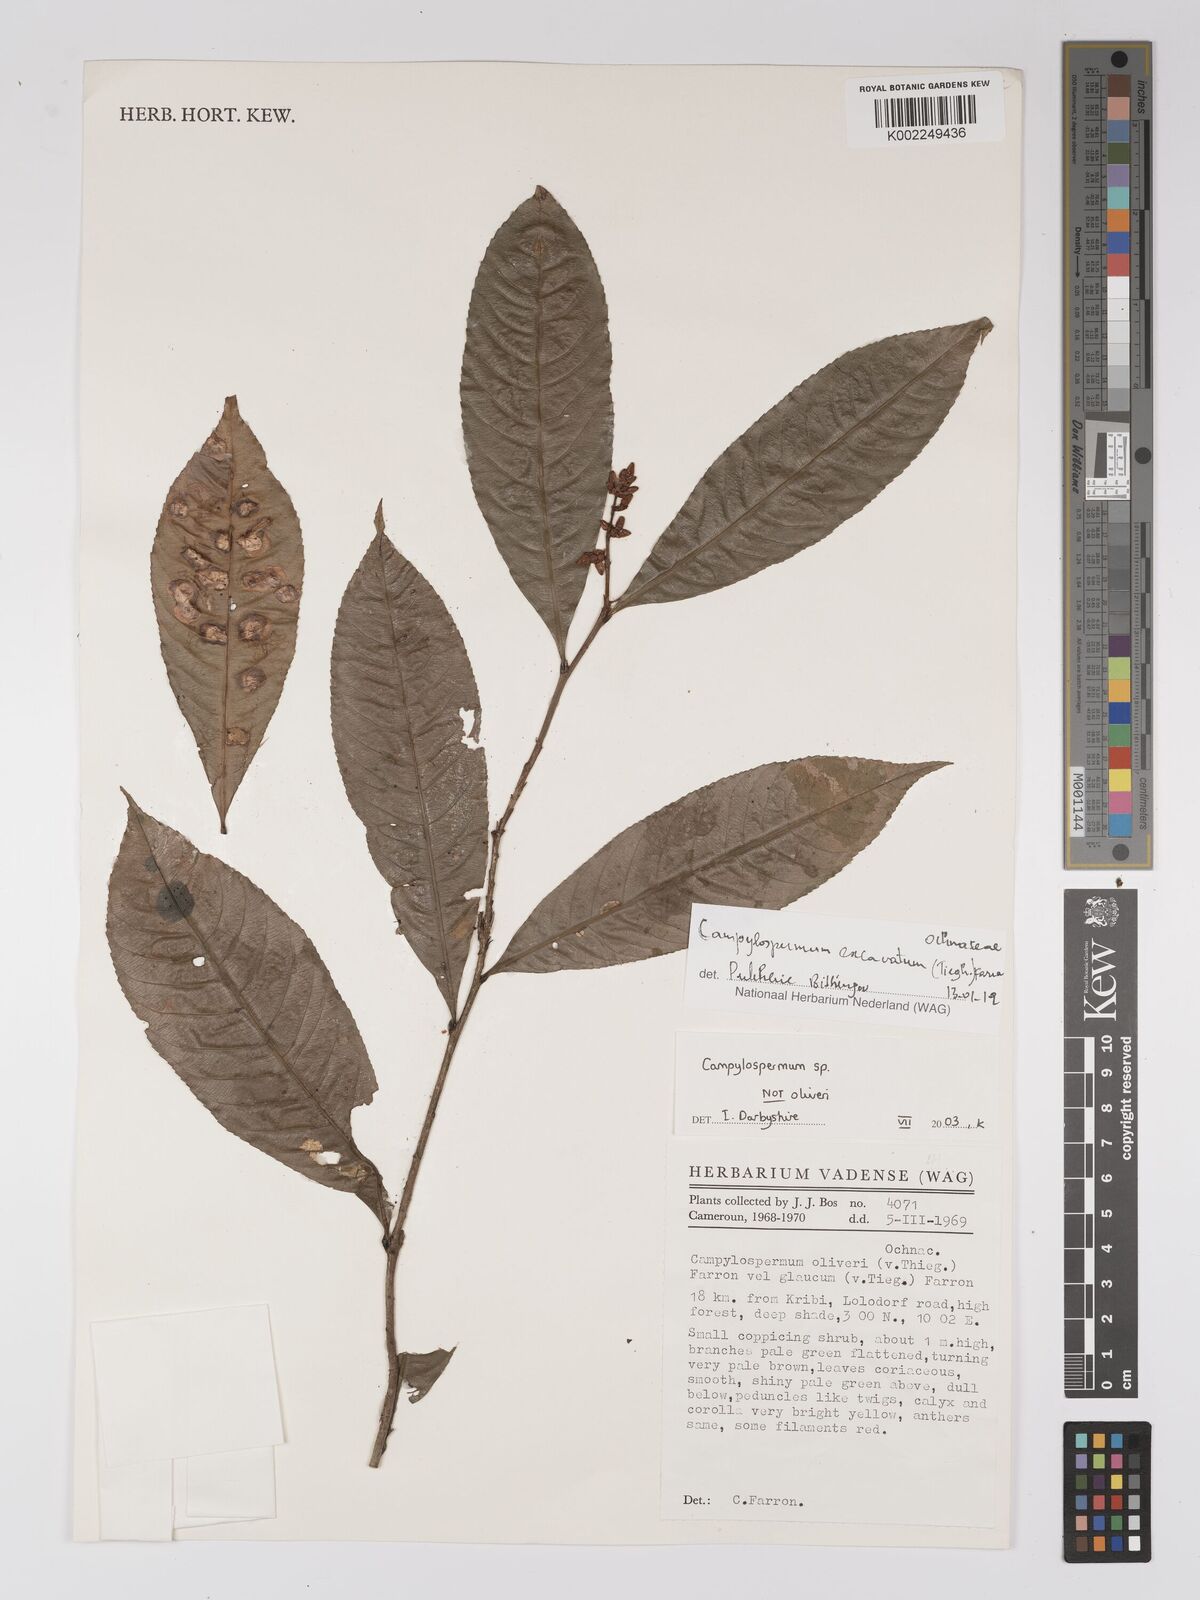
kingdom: Plantae
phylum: Tracheophyta
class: Magnoliopsida
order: Malpighiales
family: Ochnaceae
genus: Campylospermum
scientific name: Campylospermum excavatum
